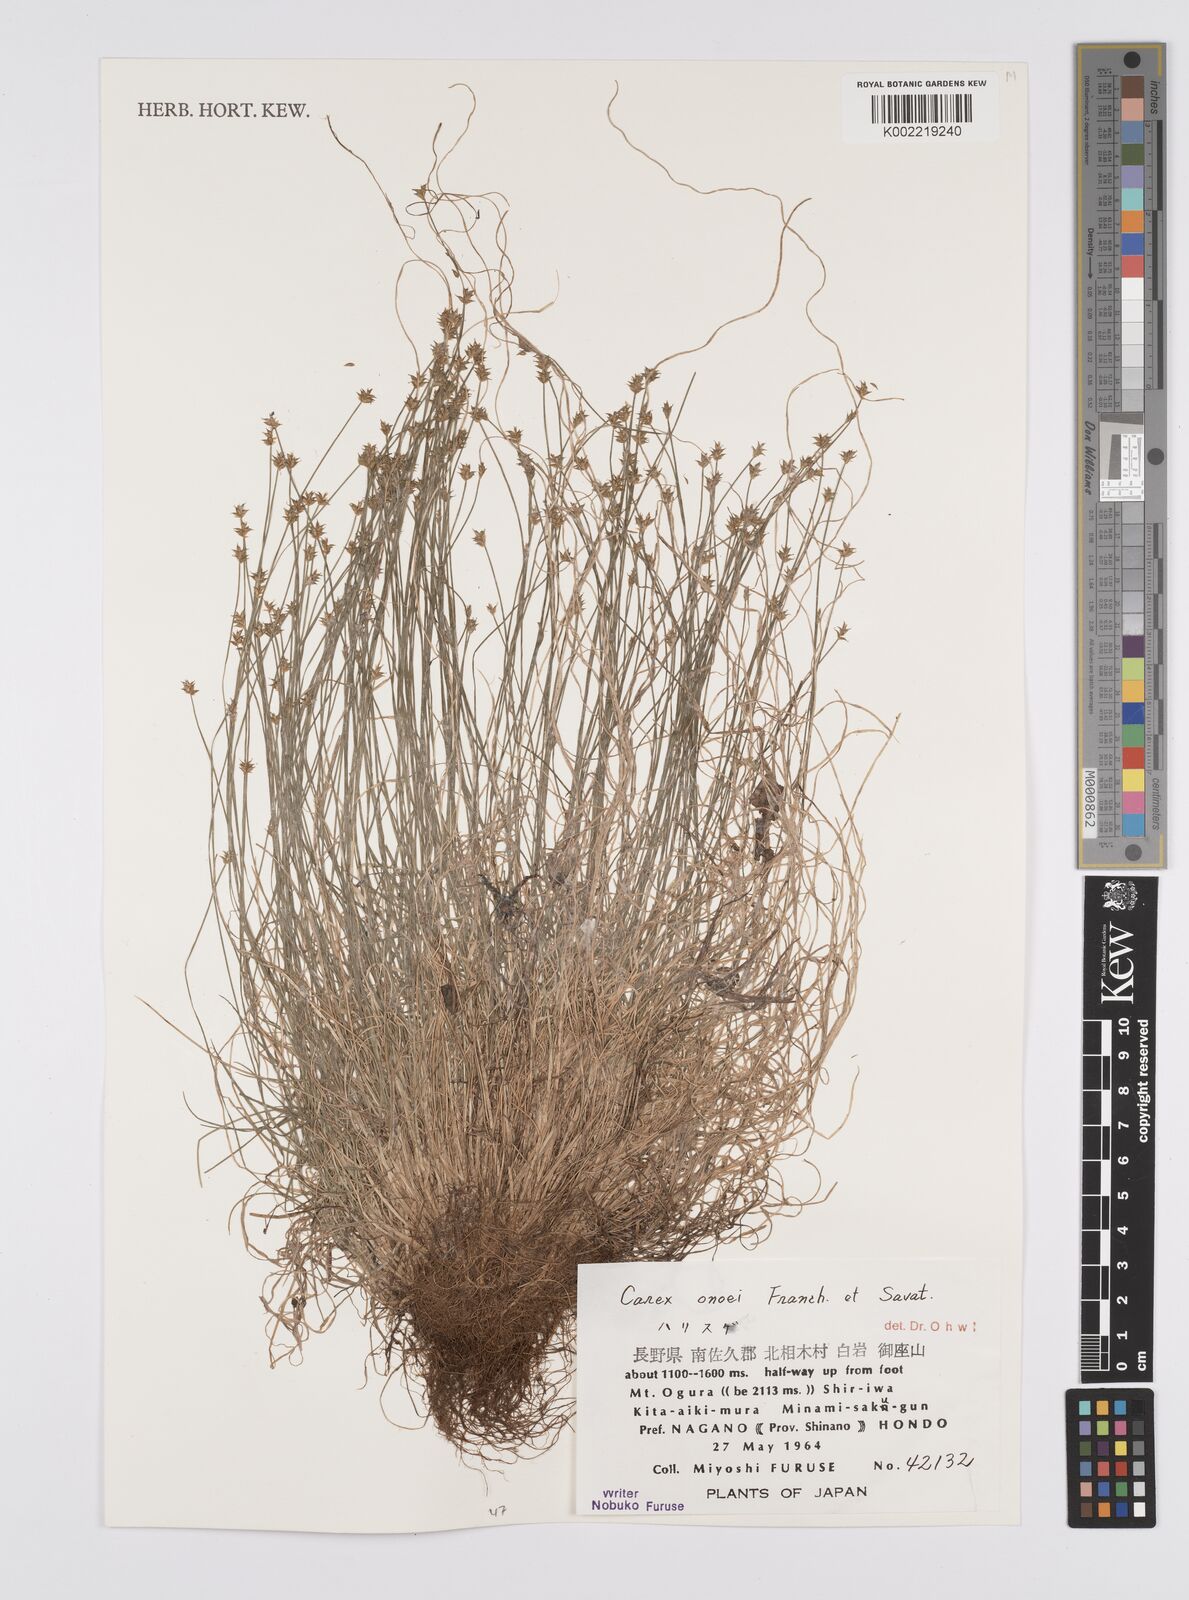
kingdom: Plantae
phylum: Tracheophyta
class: Liliopsida
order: Poales
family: Cyperaceae
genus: Carex
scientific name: Carex onoei
